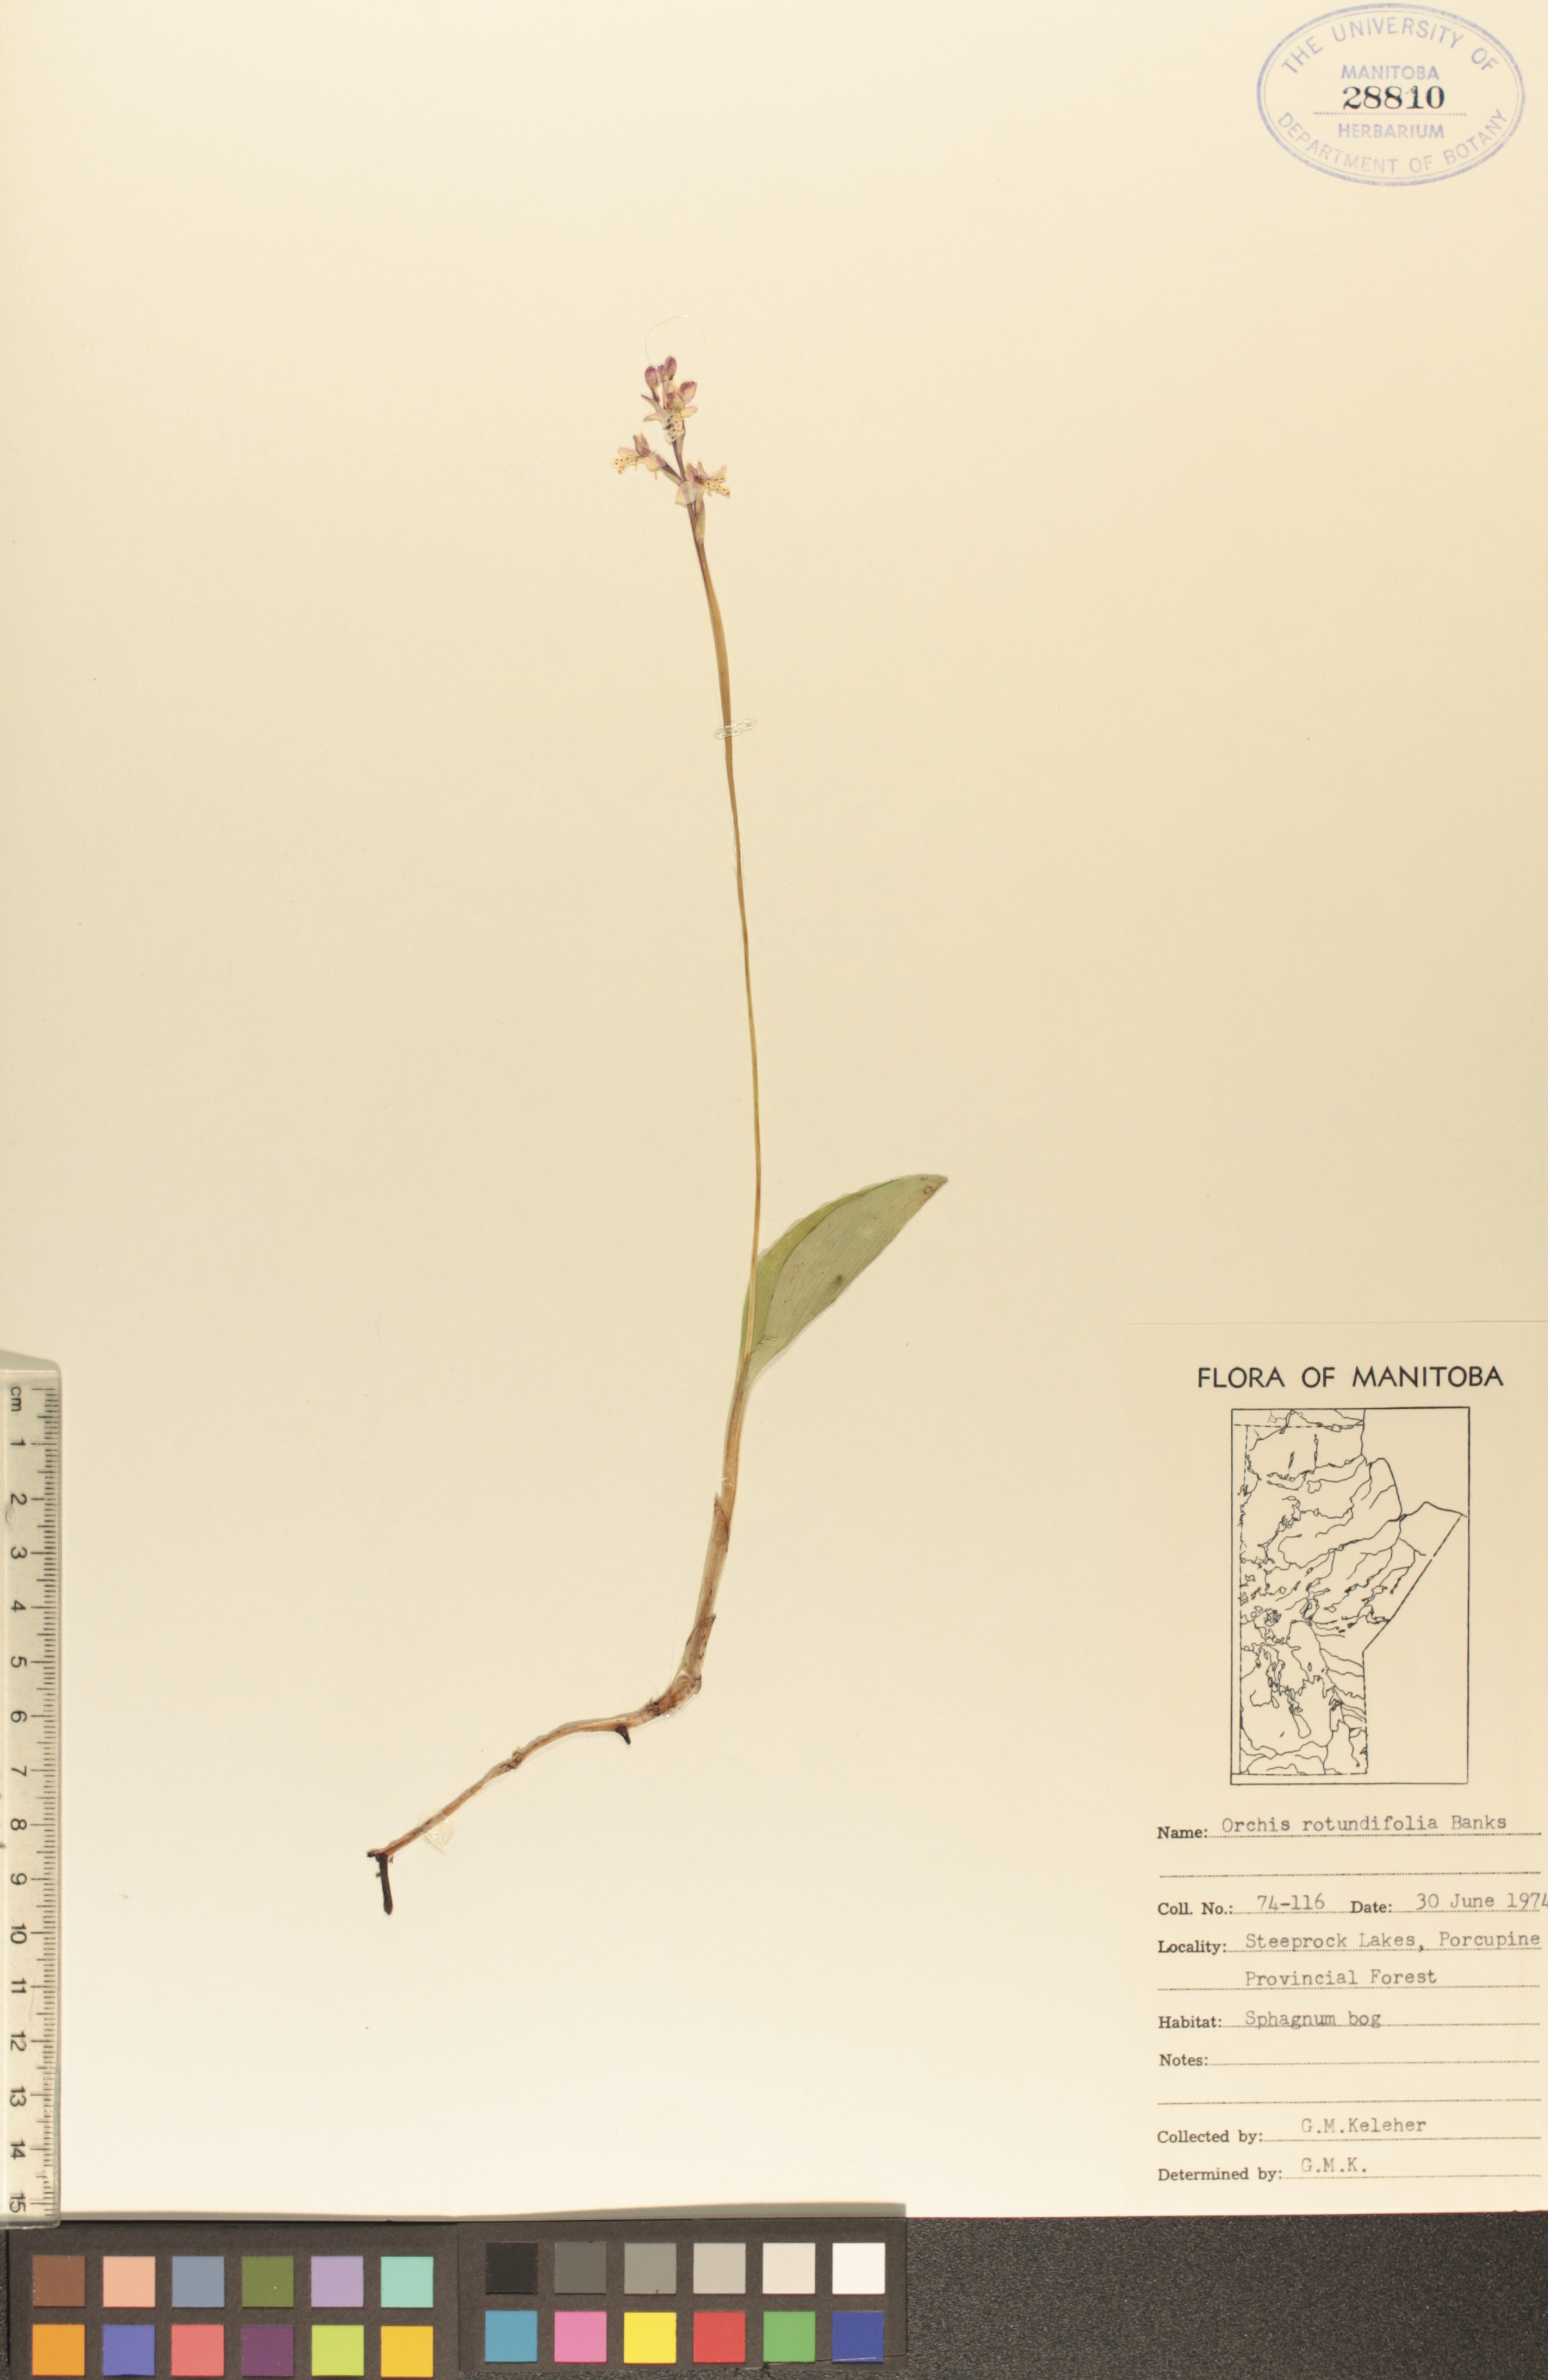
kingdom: Plantae
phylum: Tracheophyta
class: Liliopsida
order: Asparagales
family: Orchidaceae
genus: Galearis
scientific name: Galearis rotundifolia
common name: One-leaved orchis
